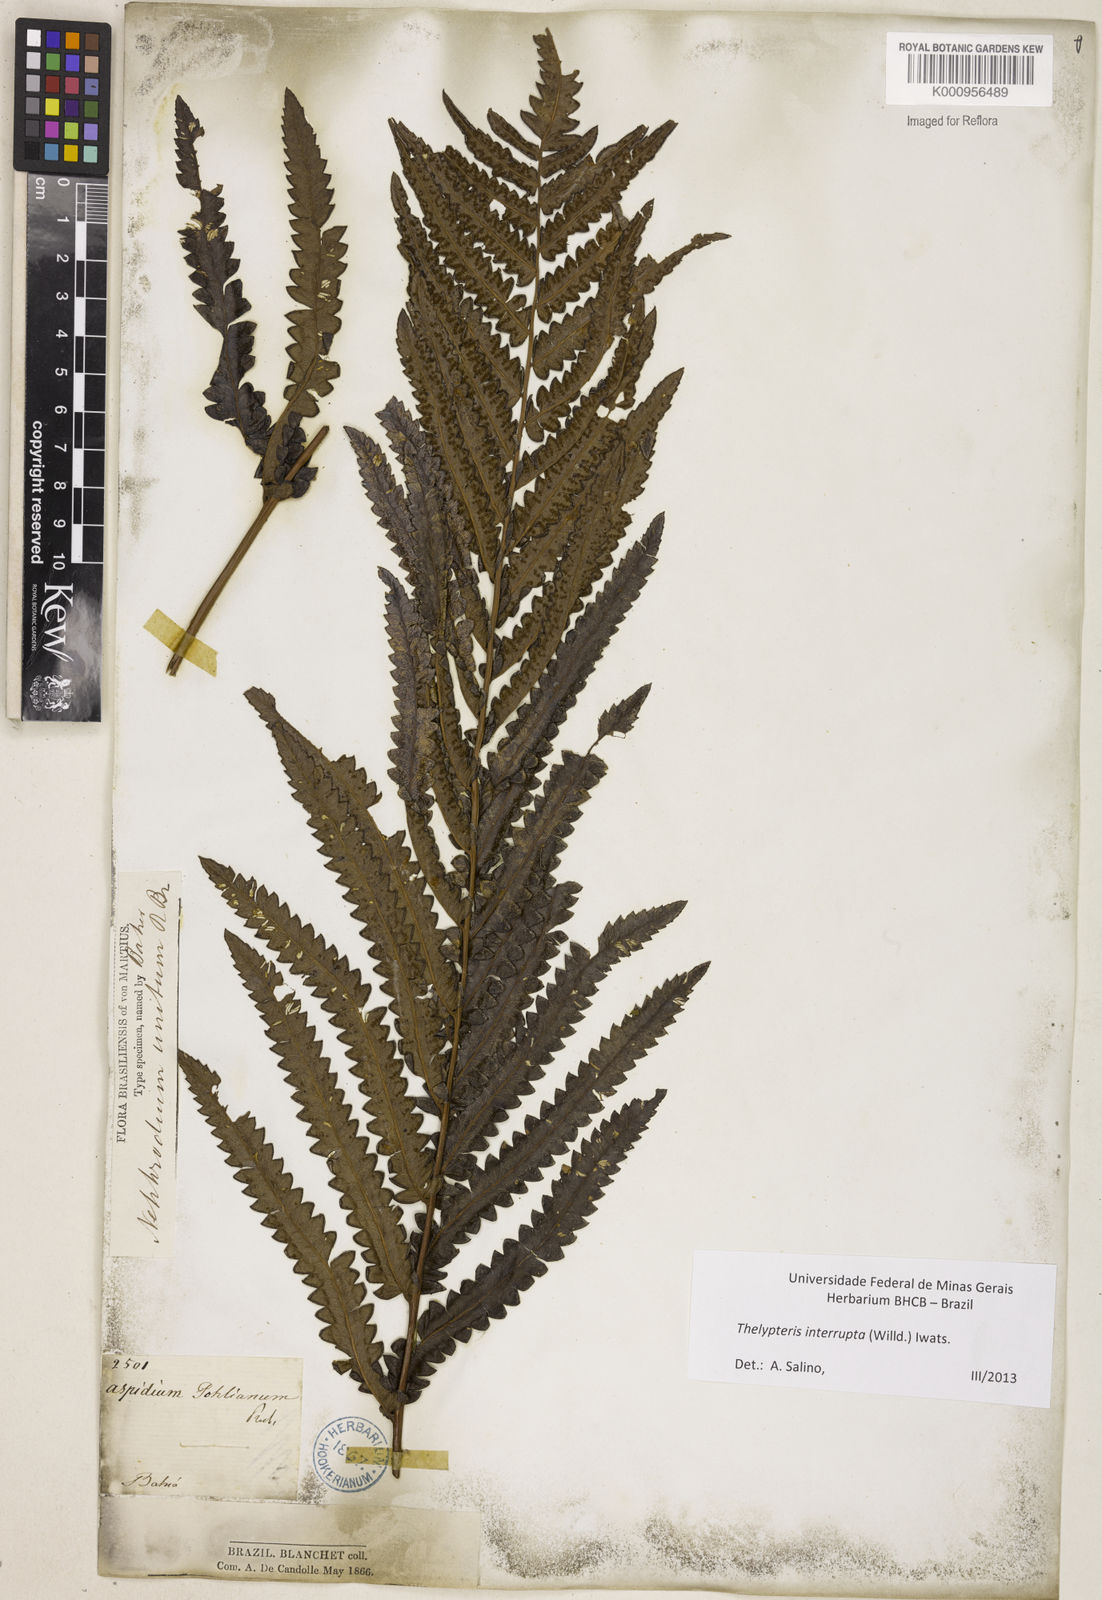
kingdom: Plantae
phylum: Tracheophyta
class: Polypodiopsida
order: Polypodiales
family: Thelypteridaceae
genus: Cyclosorus
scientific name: Cyclosorus interruptus
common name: Neke fern
